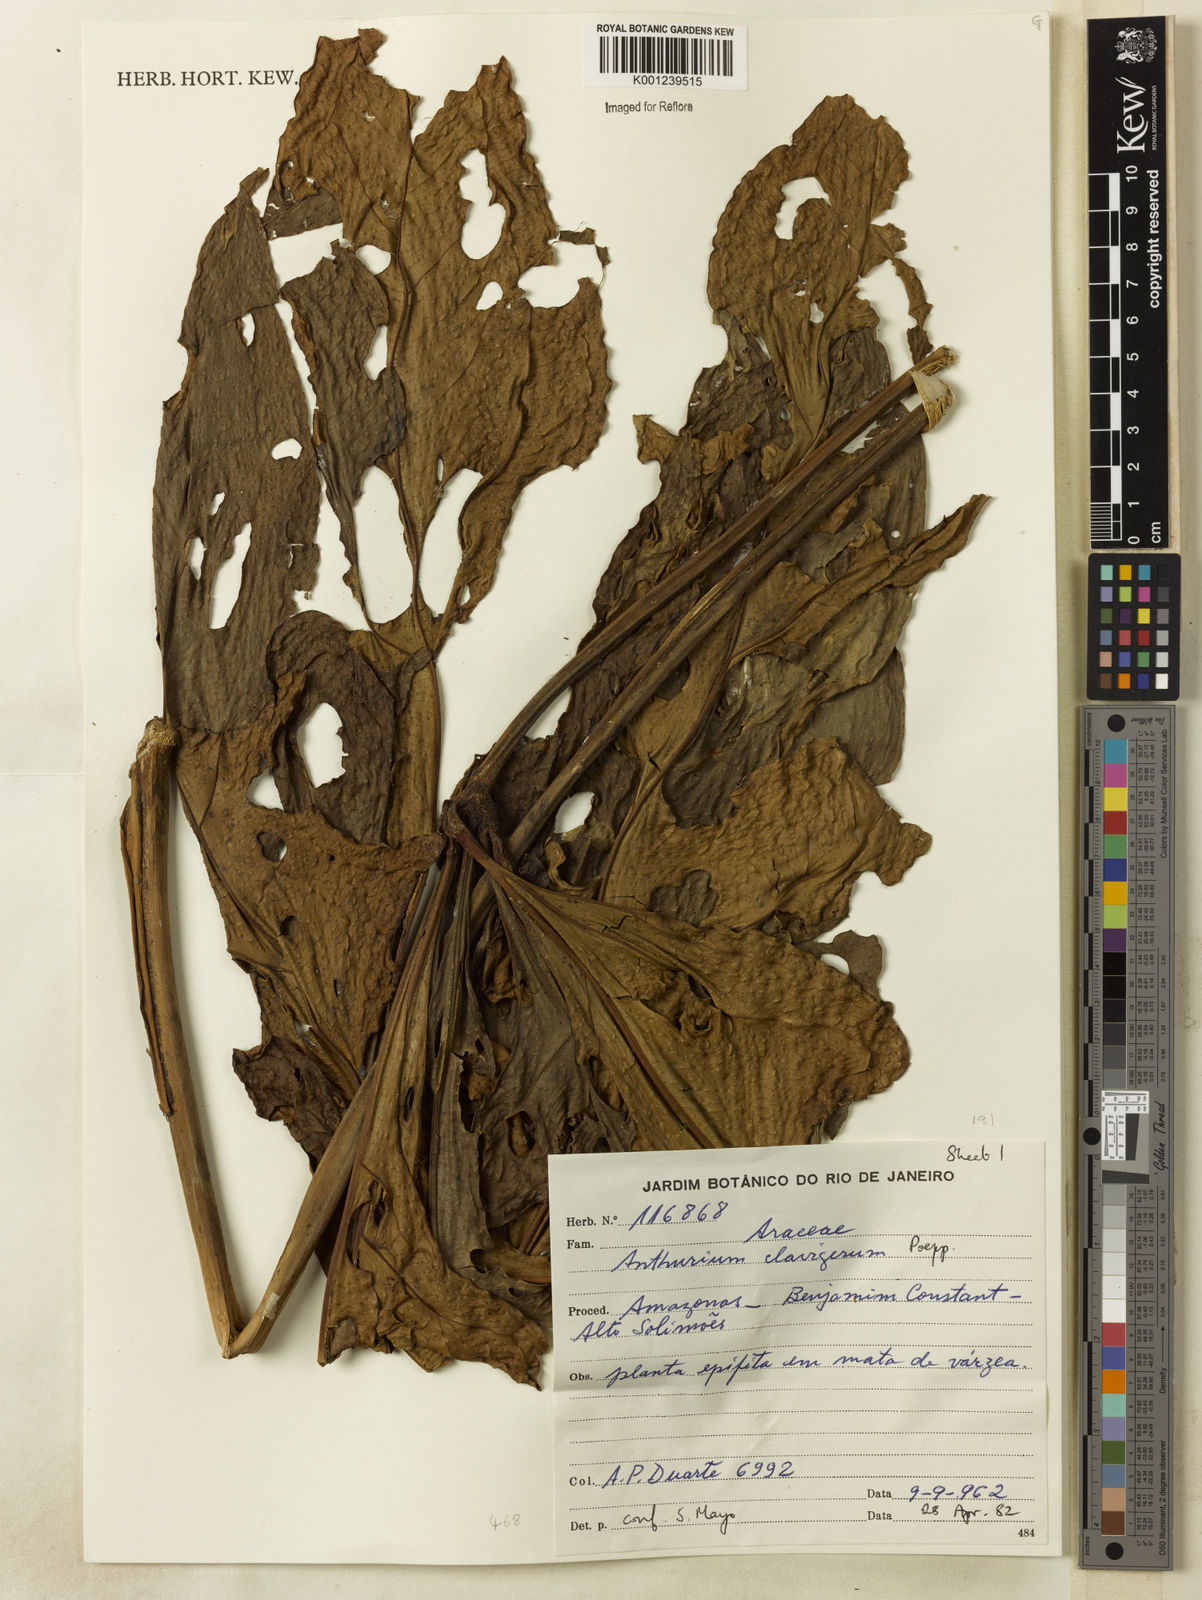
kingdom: Plantae
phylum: Tracheophyta
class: Liliopsida
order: Alismatales
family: Araceae
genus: Anthurium
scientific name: Anthurium clavigerum
